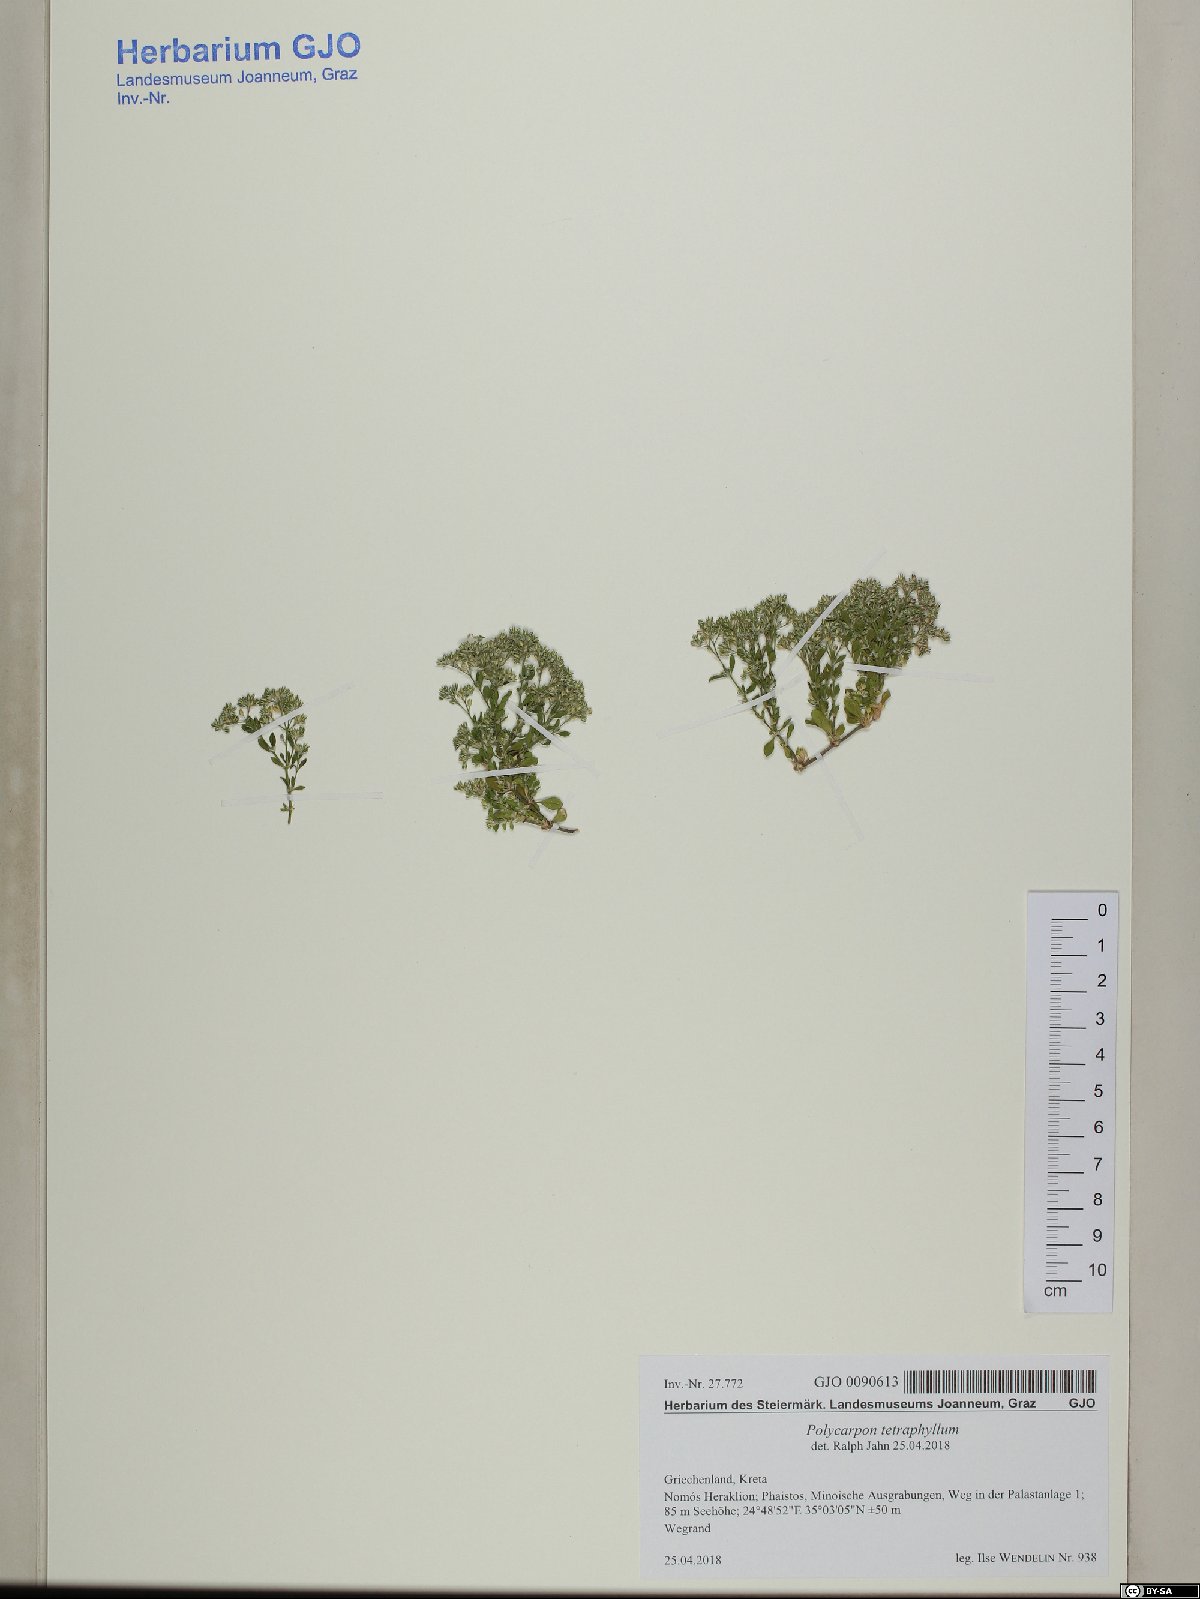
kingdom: Plantae
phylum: Tracheophyta
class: Magnoliopsida
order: Caryophyllales
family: Caryophyllaceae
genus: Polycarpon
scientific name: Polycarpon tetraphyllum
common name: Four-leaved all-seed
